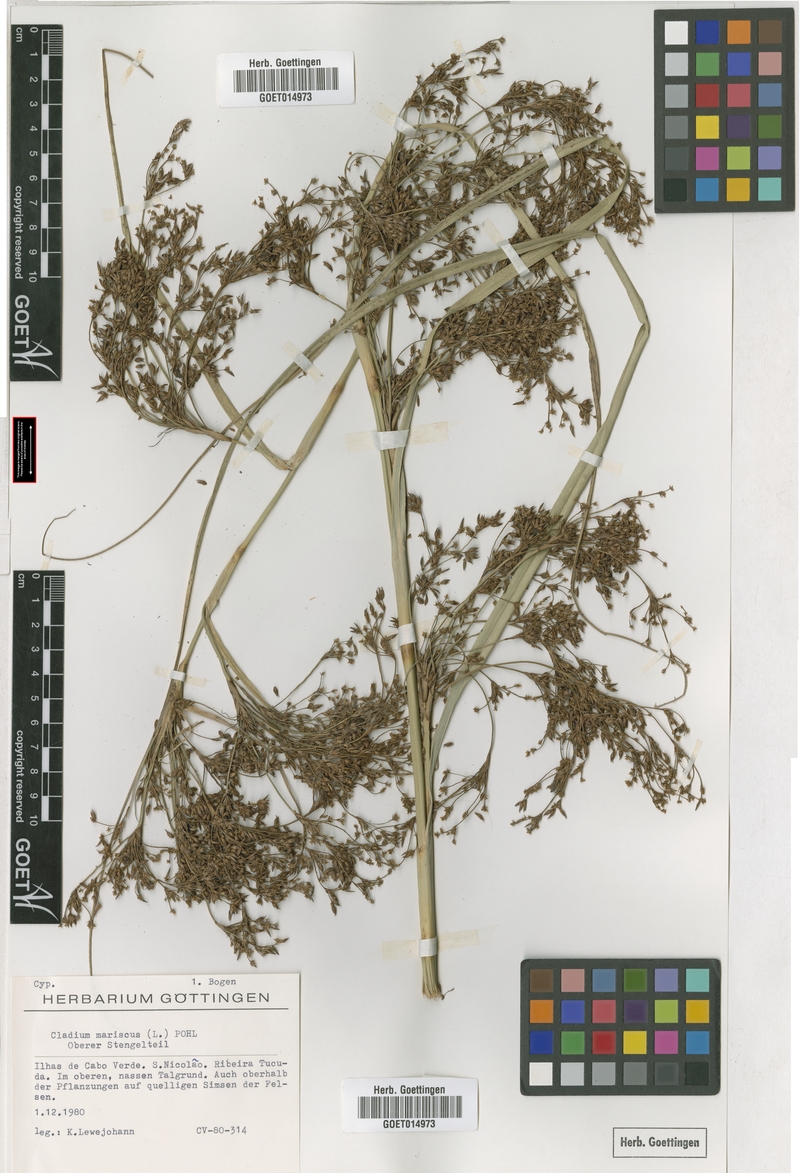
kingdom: Plantae
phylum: Tracheophyta
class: Liliopsida
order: Poales
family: Cyperaceae
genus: Cladium
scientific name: Cladium mariscus
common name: Great fen-sedge
